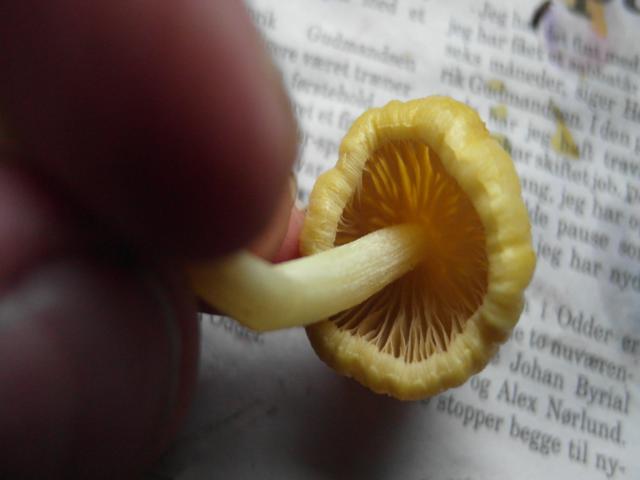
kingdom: Fungi
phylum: Basidiomycota
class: Agaricomycetes
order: Agaricales
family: Bolbitiaceae
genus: Bolbitius
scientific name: Bolbitius titubans
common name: almindelig gulhat
